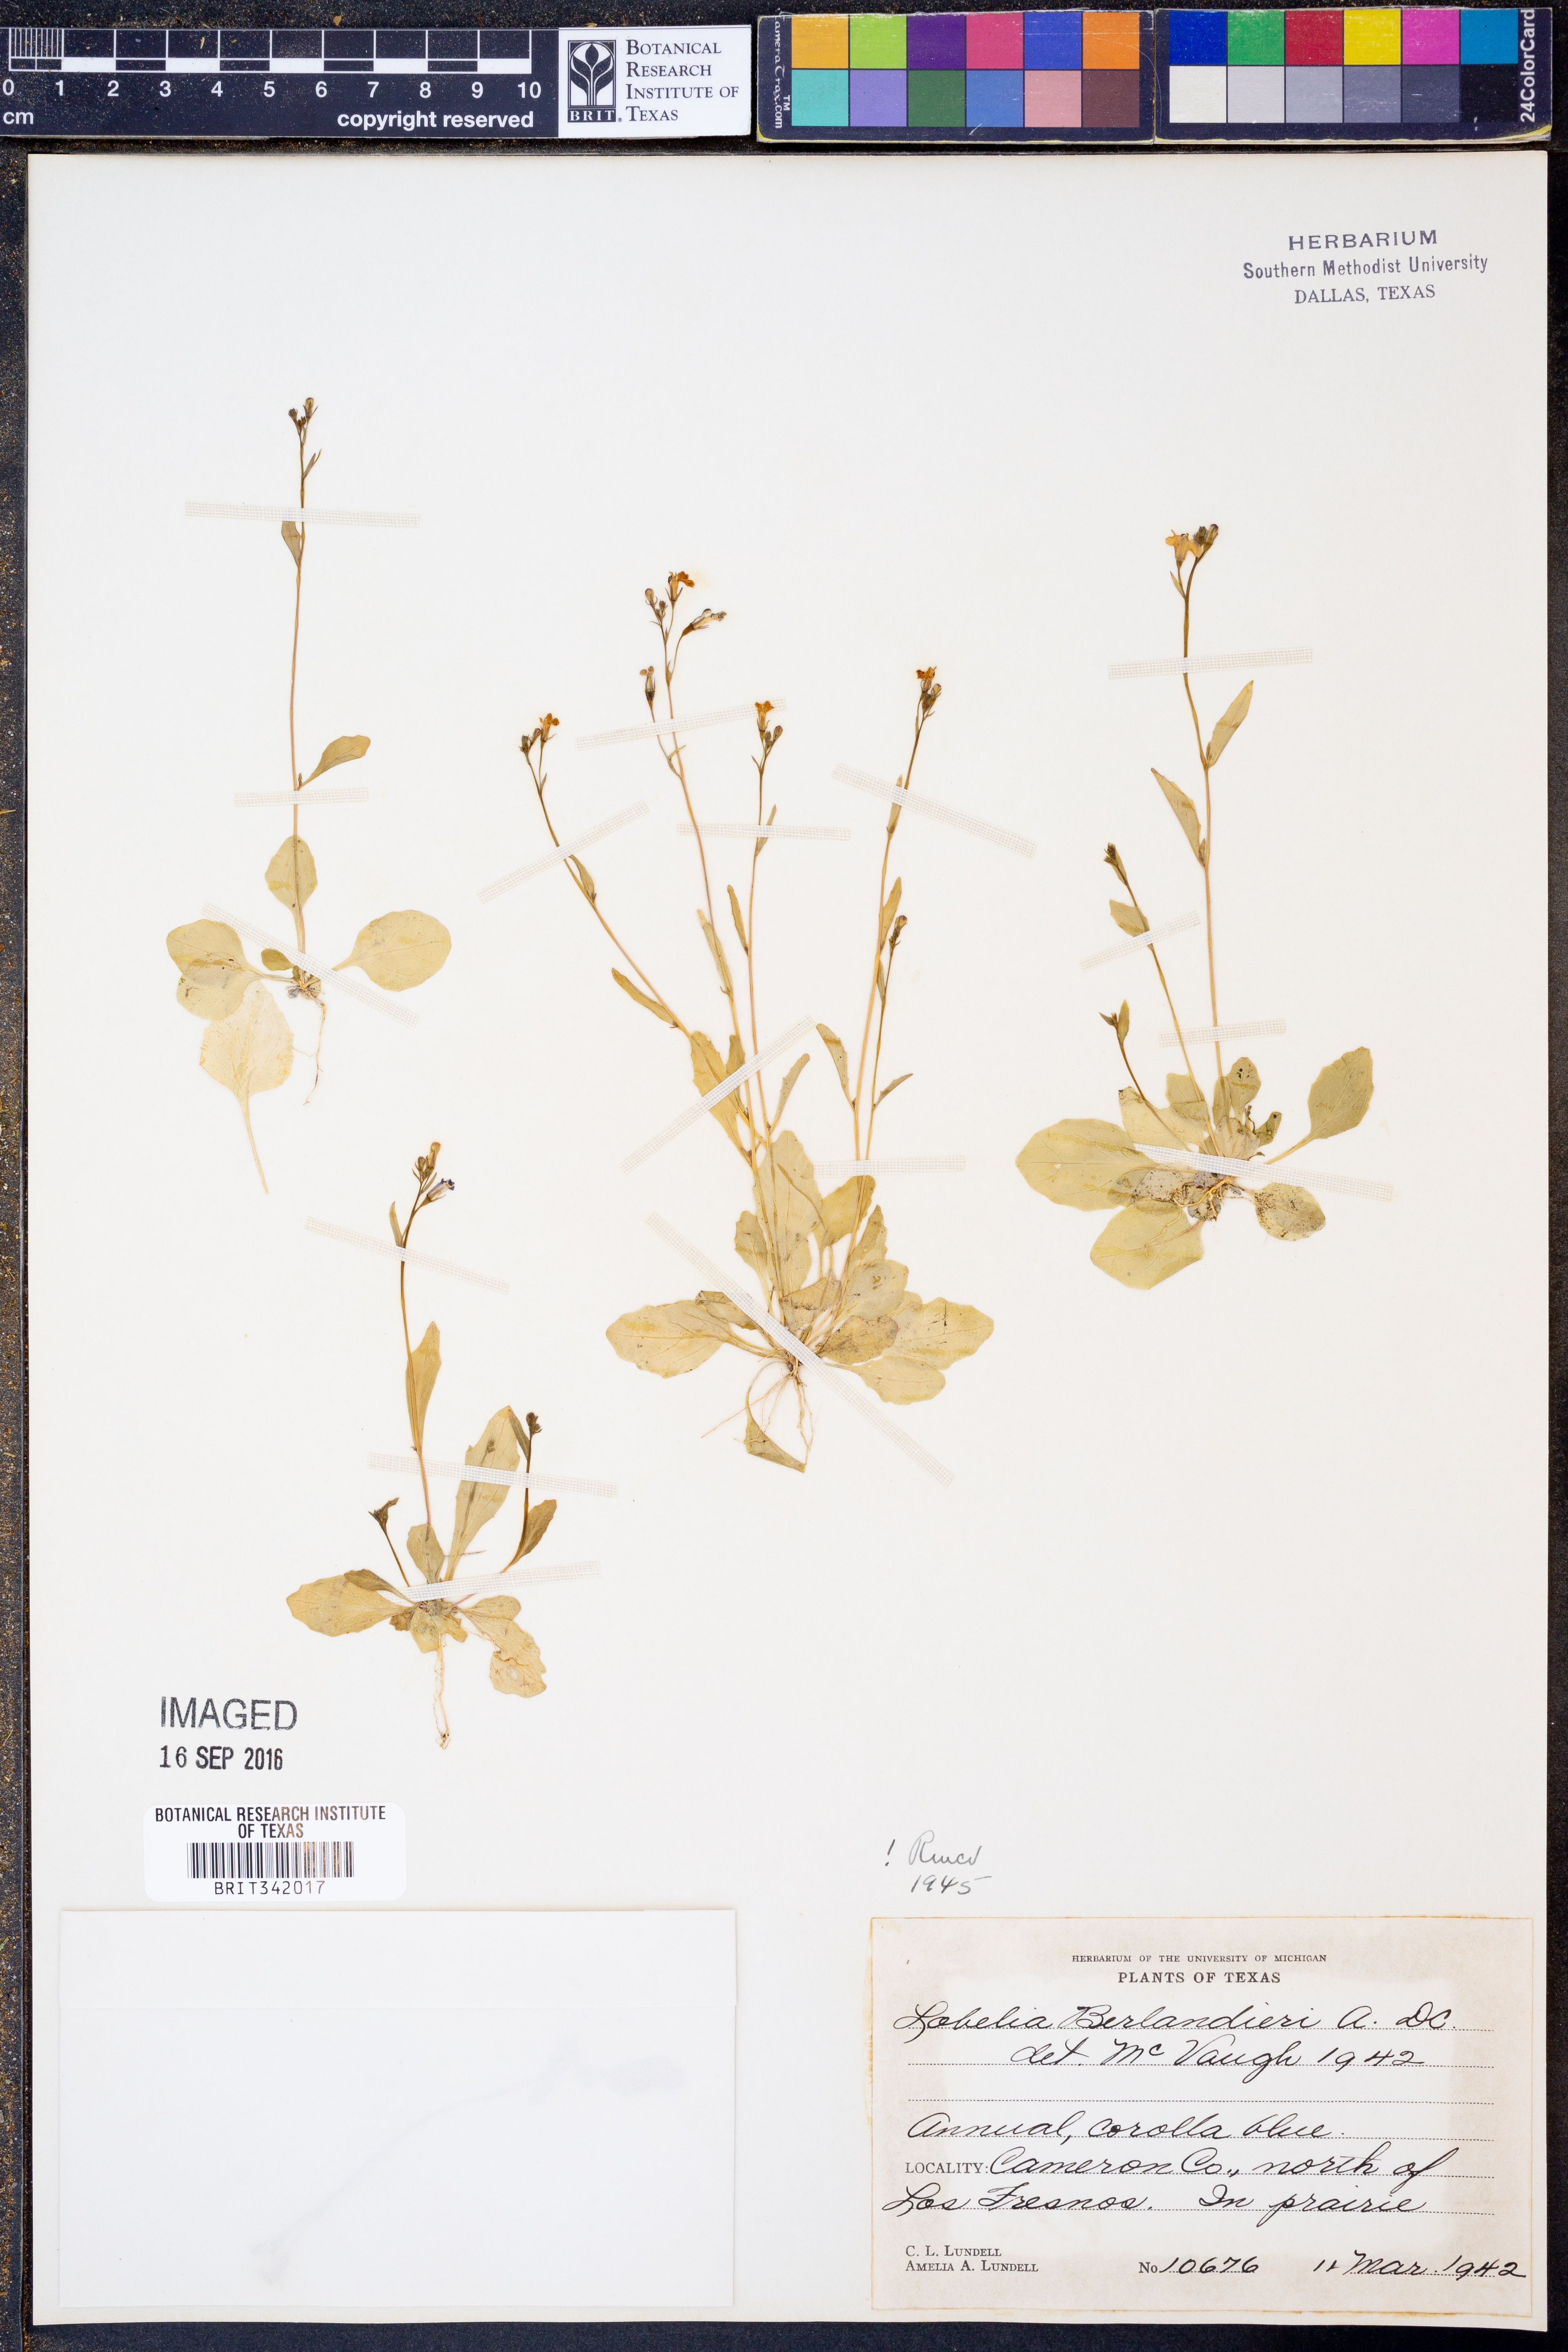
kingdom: Plantae
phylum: Tracheophyta
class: Magnoliopsida
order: Asterales
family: Campanulaceae
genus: Lobelia
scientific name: Lobelia berlandieri
